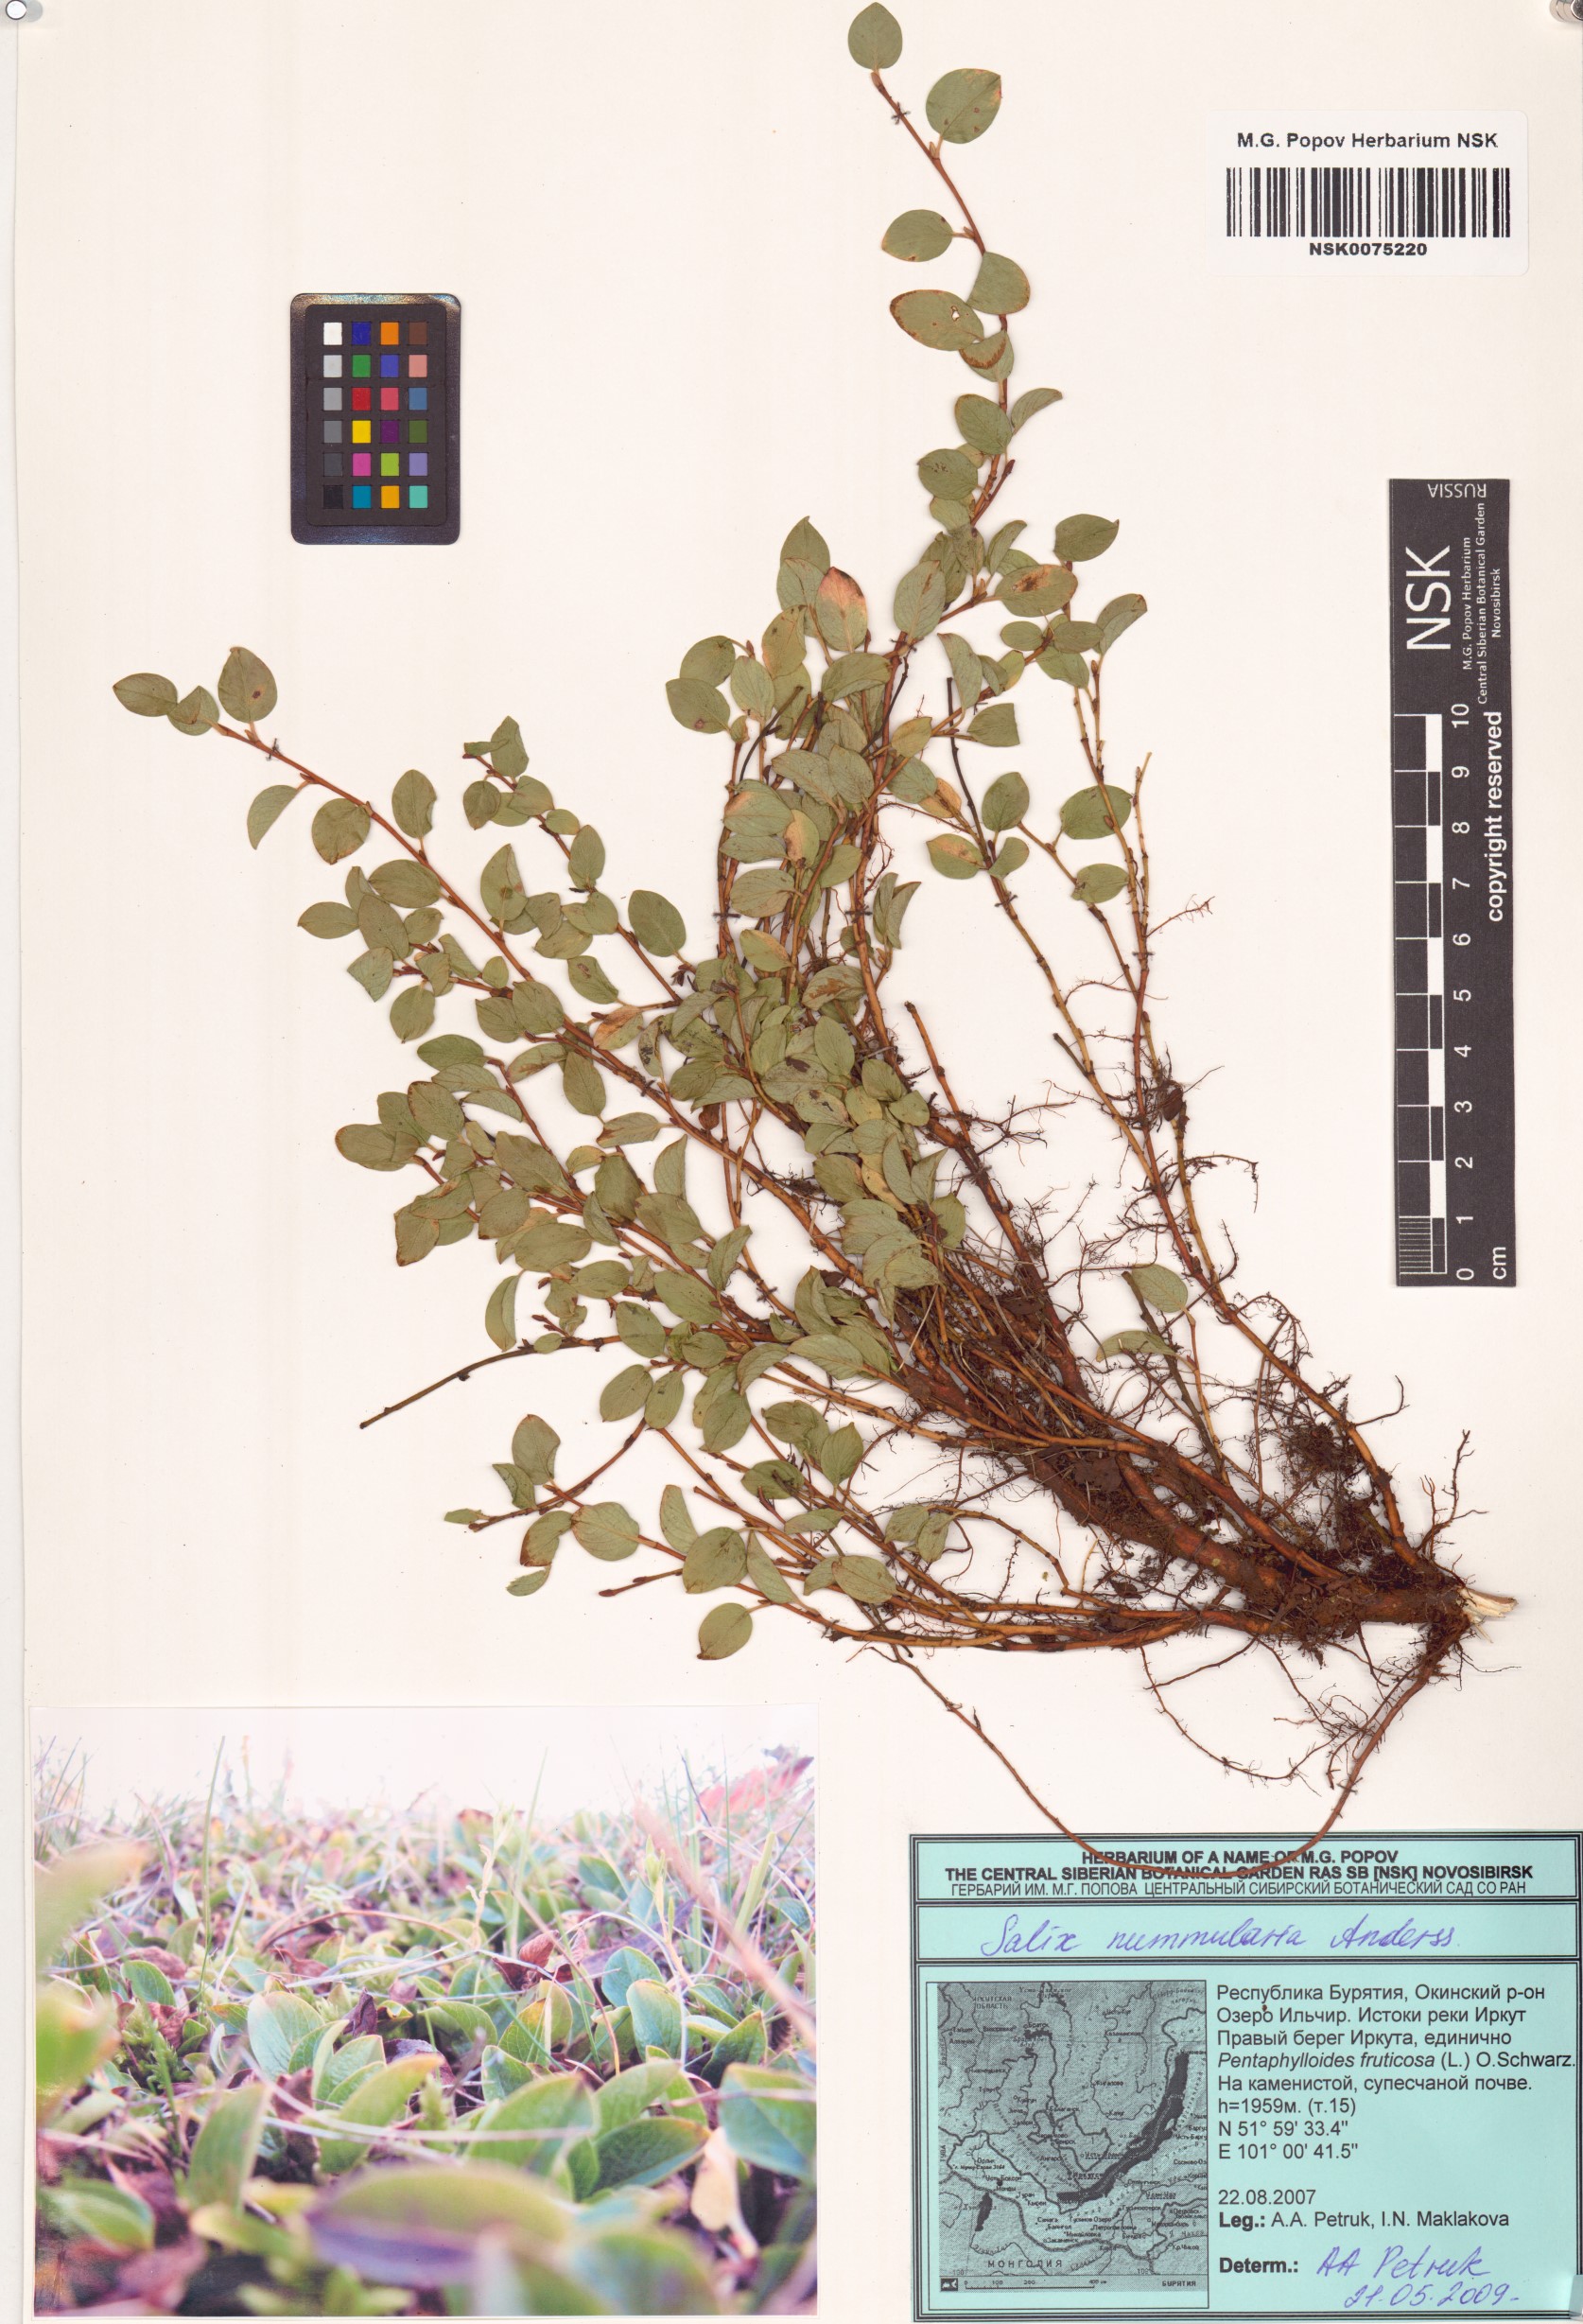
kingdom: Plantae
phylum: Tracheophyta
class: Magnoliopsida
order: Malpighiales
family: Salicaceae
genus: Salix
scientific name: Salix nummularia
